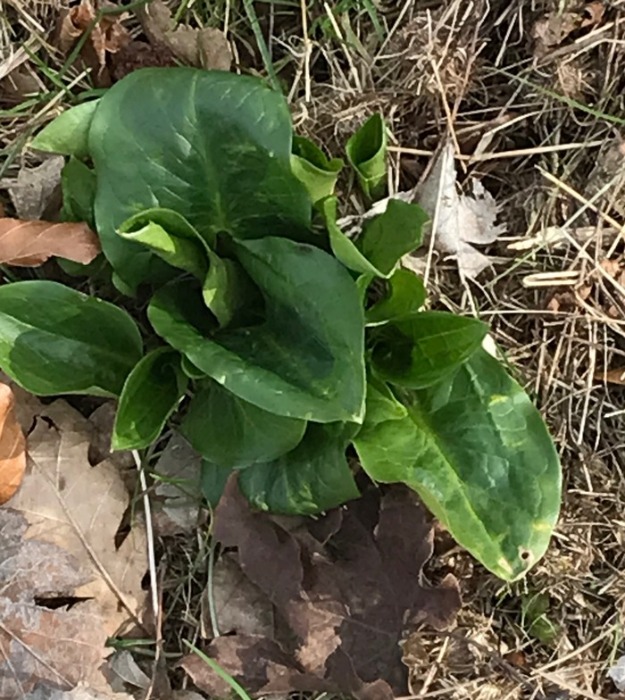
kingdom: Plantae
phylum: Tracheophyta
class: Liliopsida
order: Alismatales
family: Araceae
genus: Arum
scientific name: Arum
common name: Arumslægten
